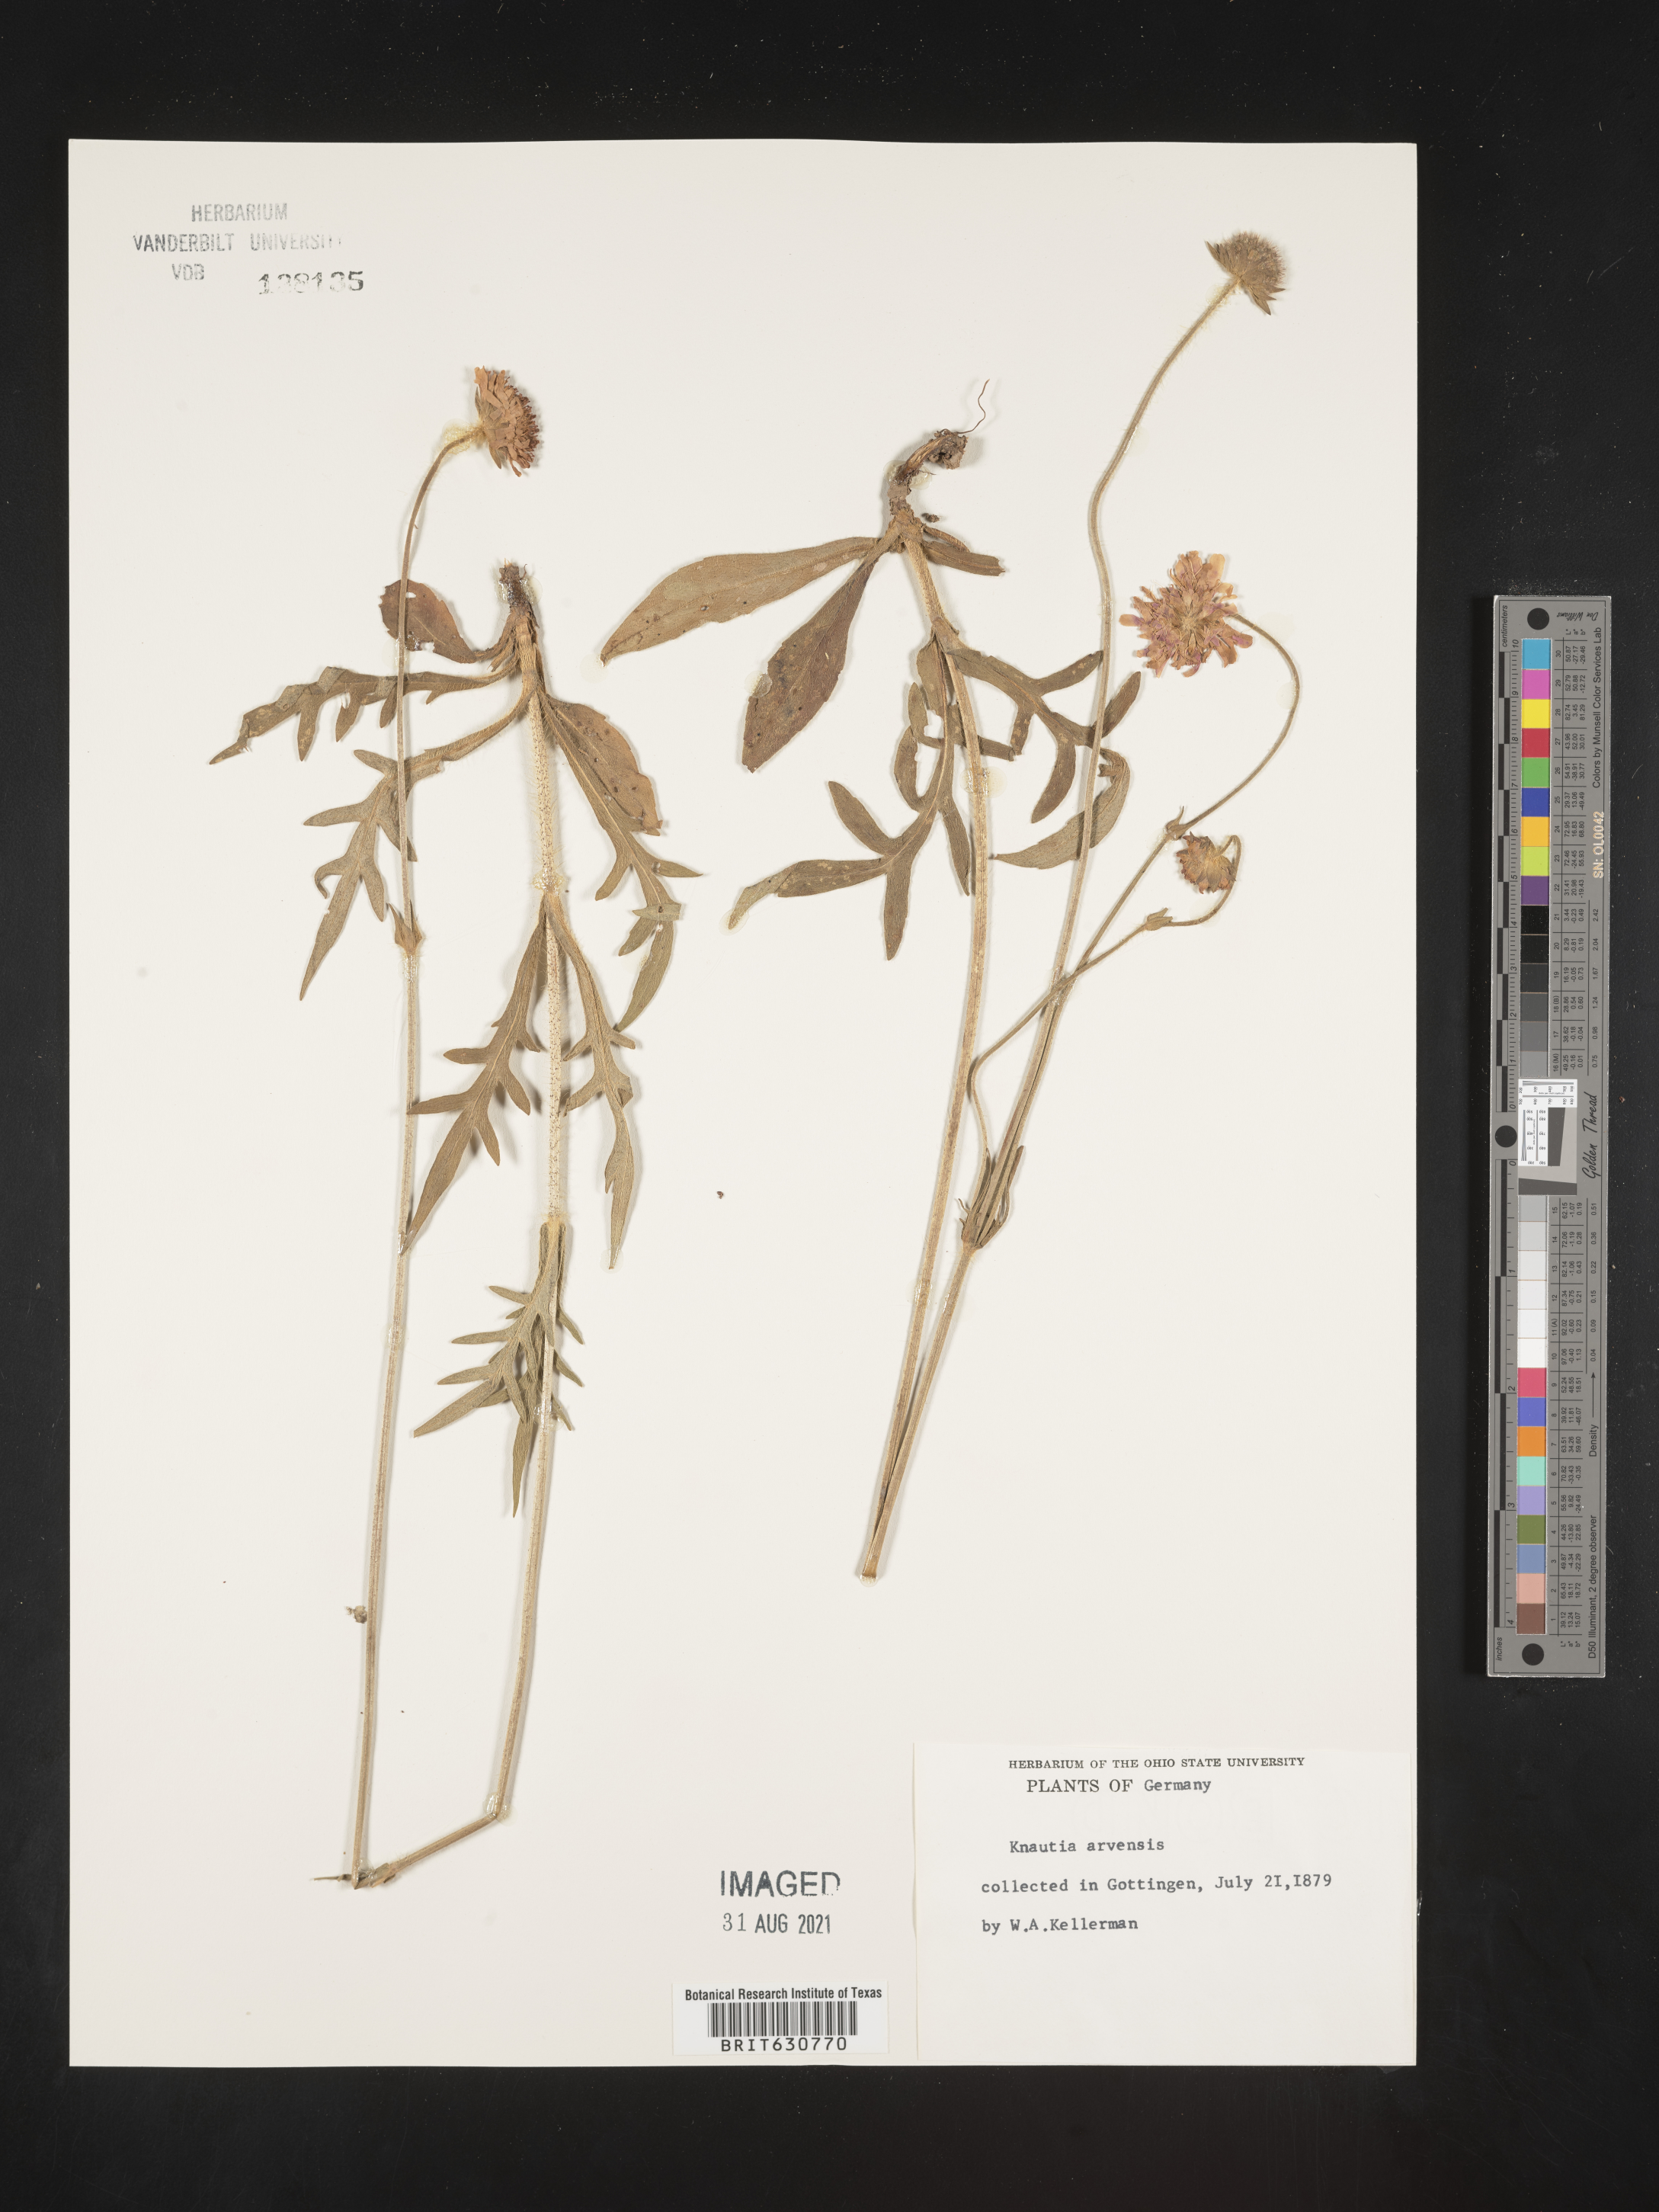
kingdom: Plantae
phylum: Tracheophyta
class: Magnoliopsida
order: Dipsacales
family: Caprifoliaceae
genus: Knautia
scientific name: Knautia arvensis
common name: Field scabiosa
